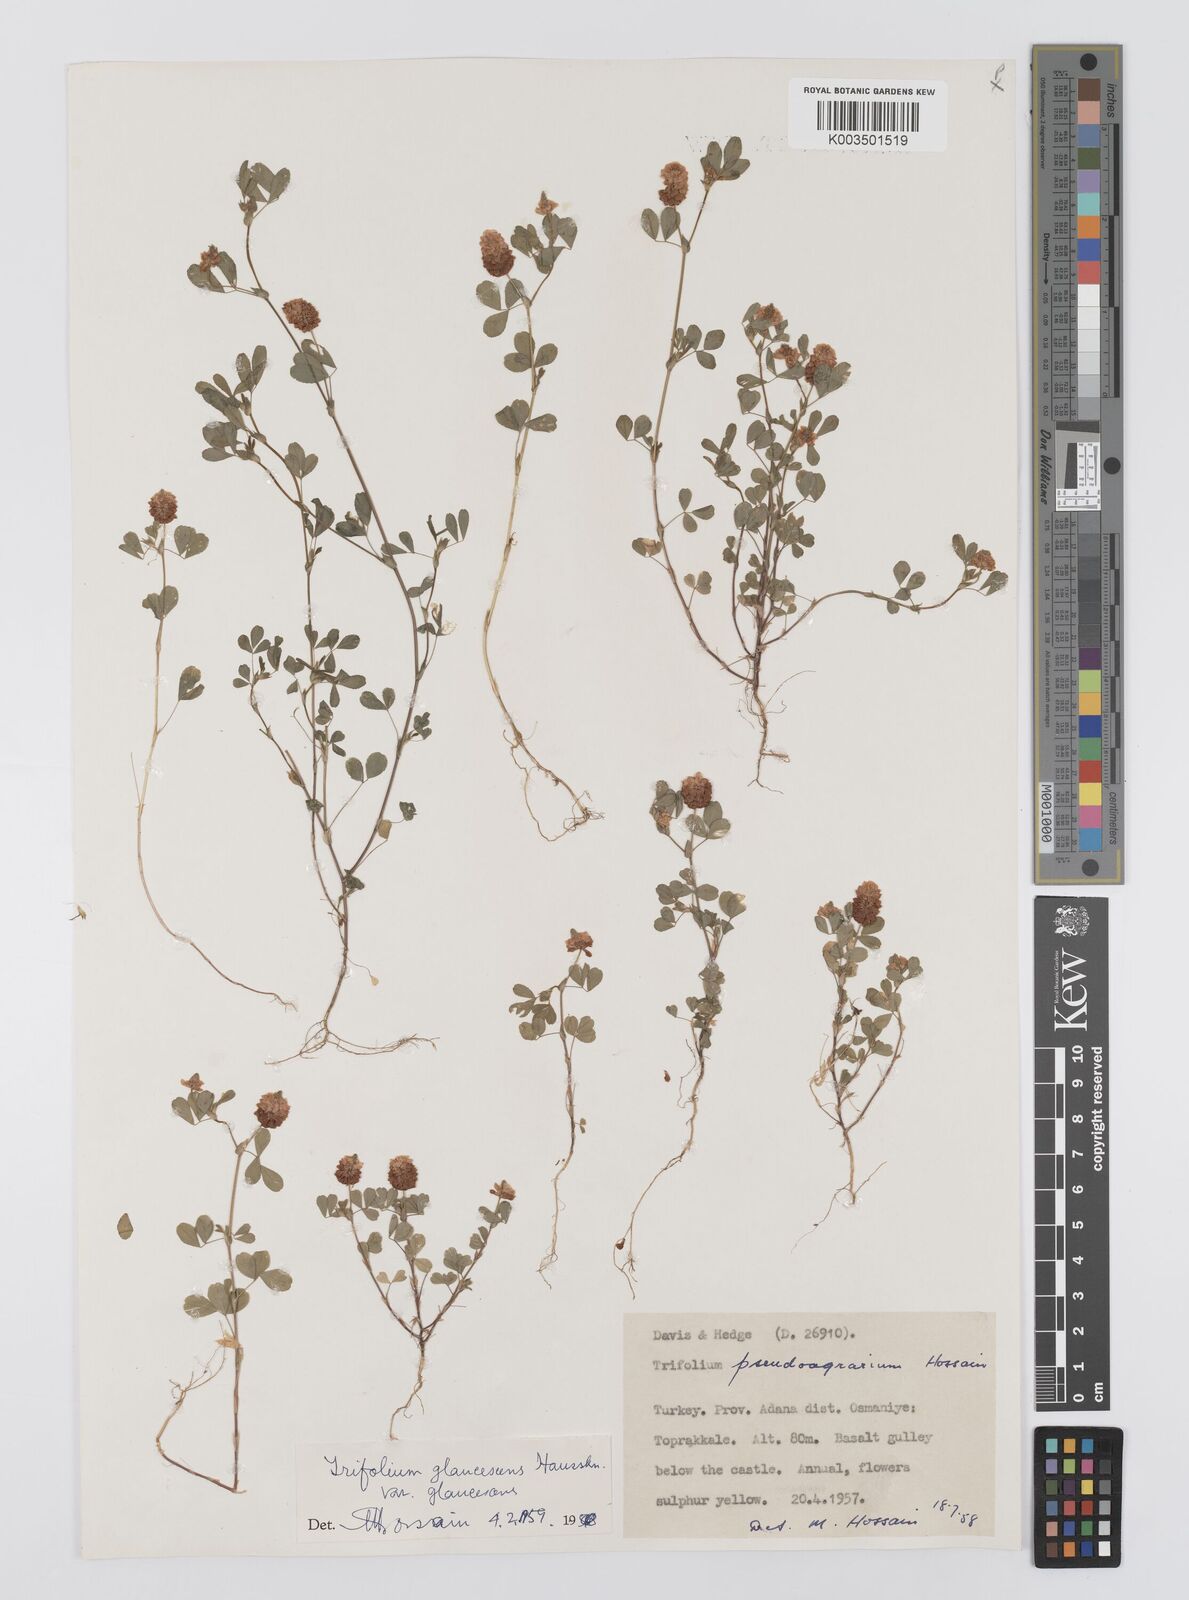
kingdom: Plantae
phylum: Tracheophyta
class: Magnoliopsida
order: Fabales
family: Fabaceae
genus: Trifolium
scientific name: Trifolium campestre
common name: Field clover
